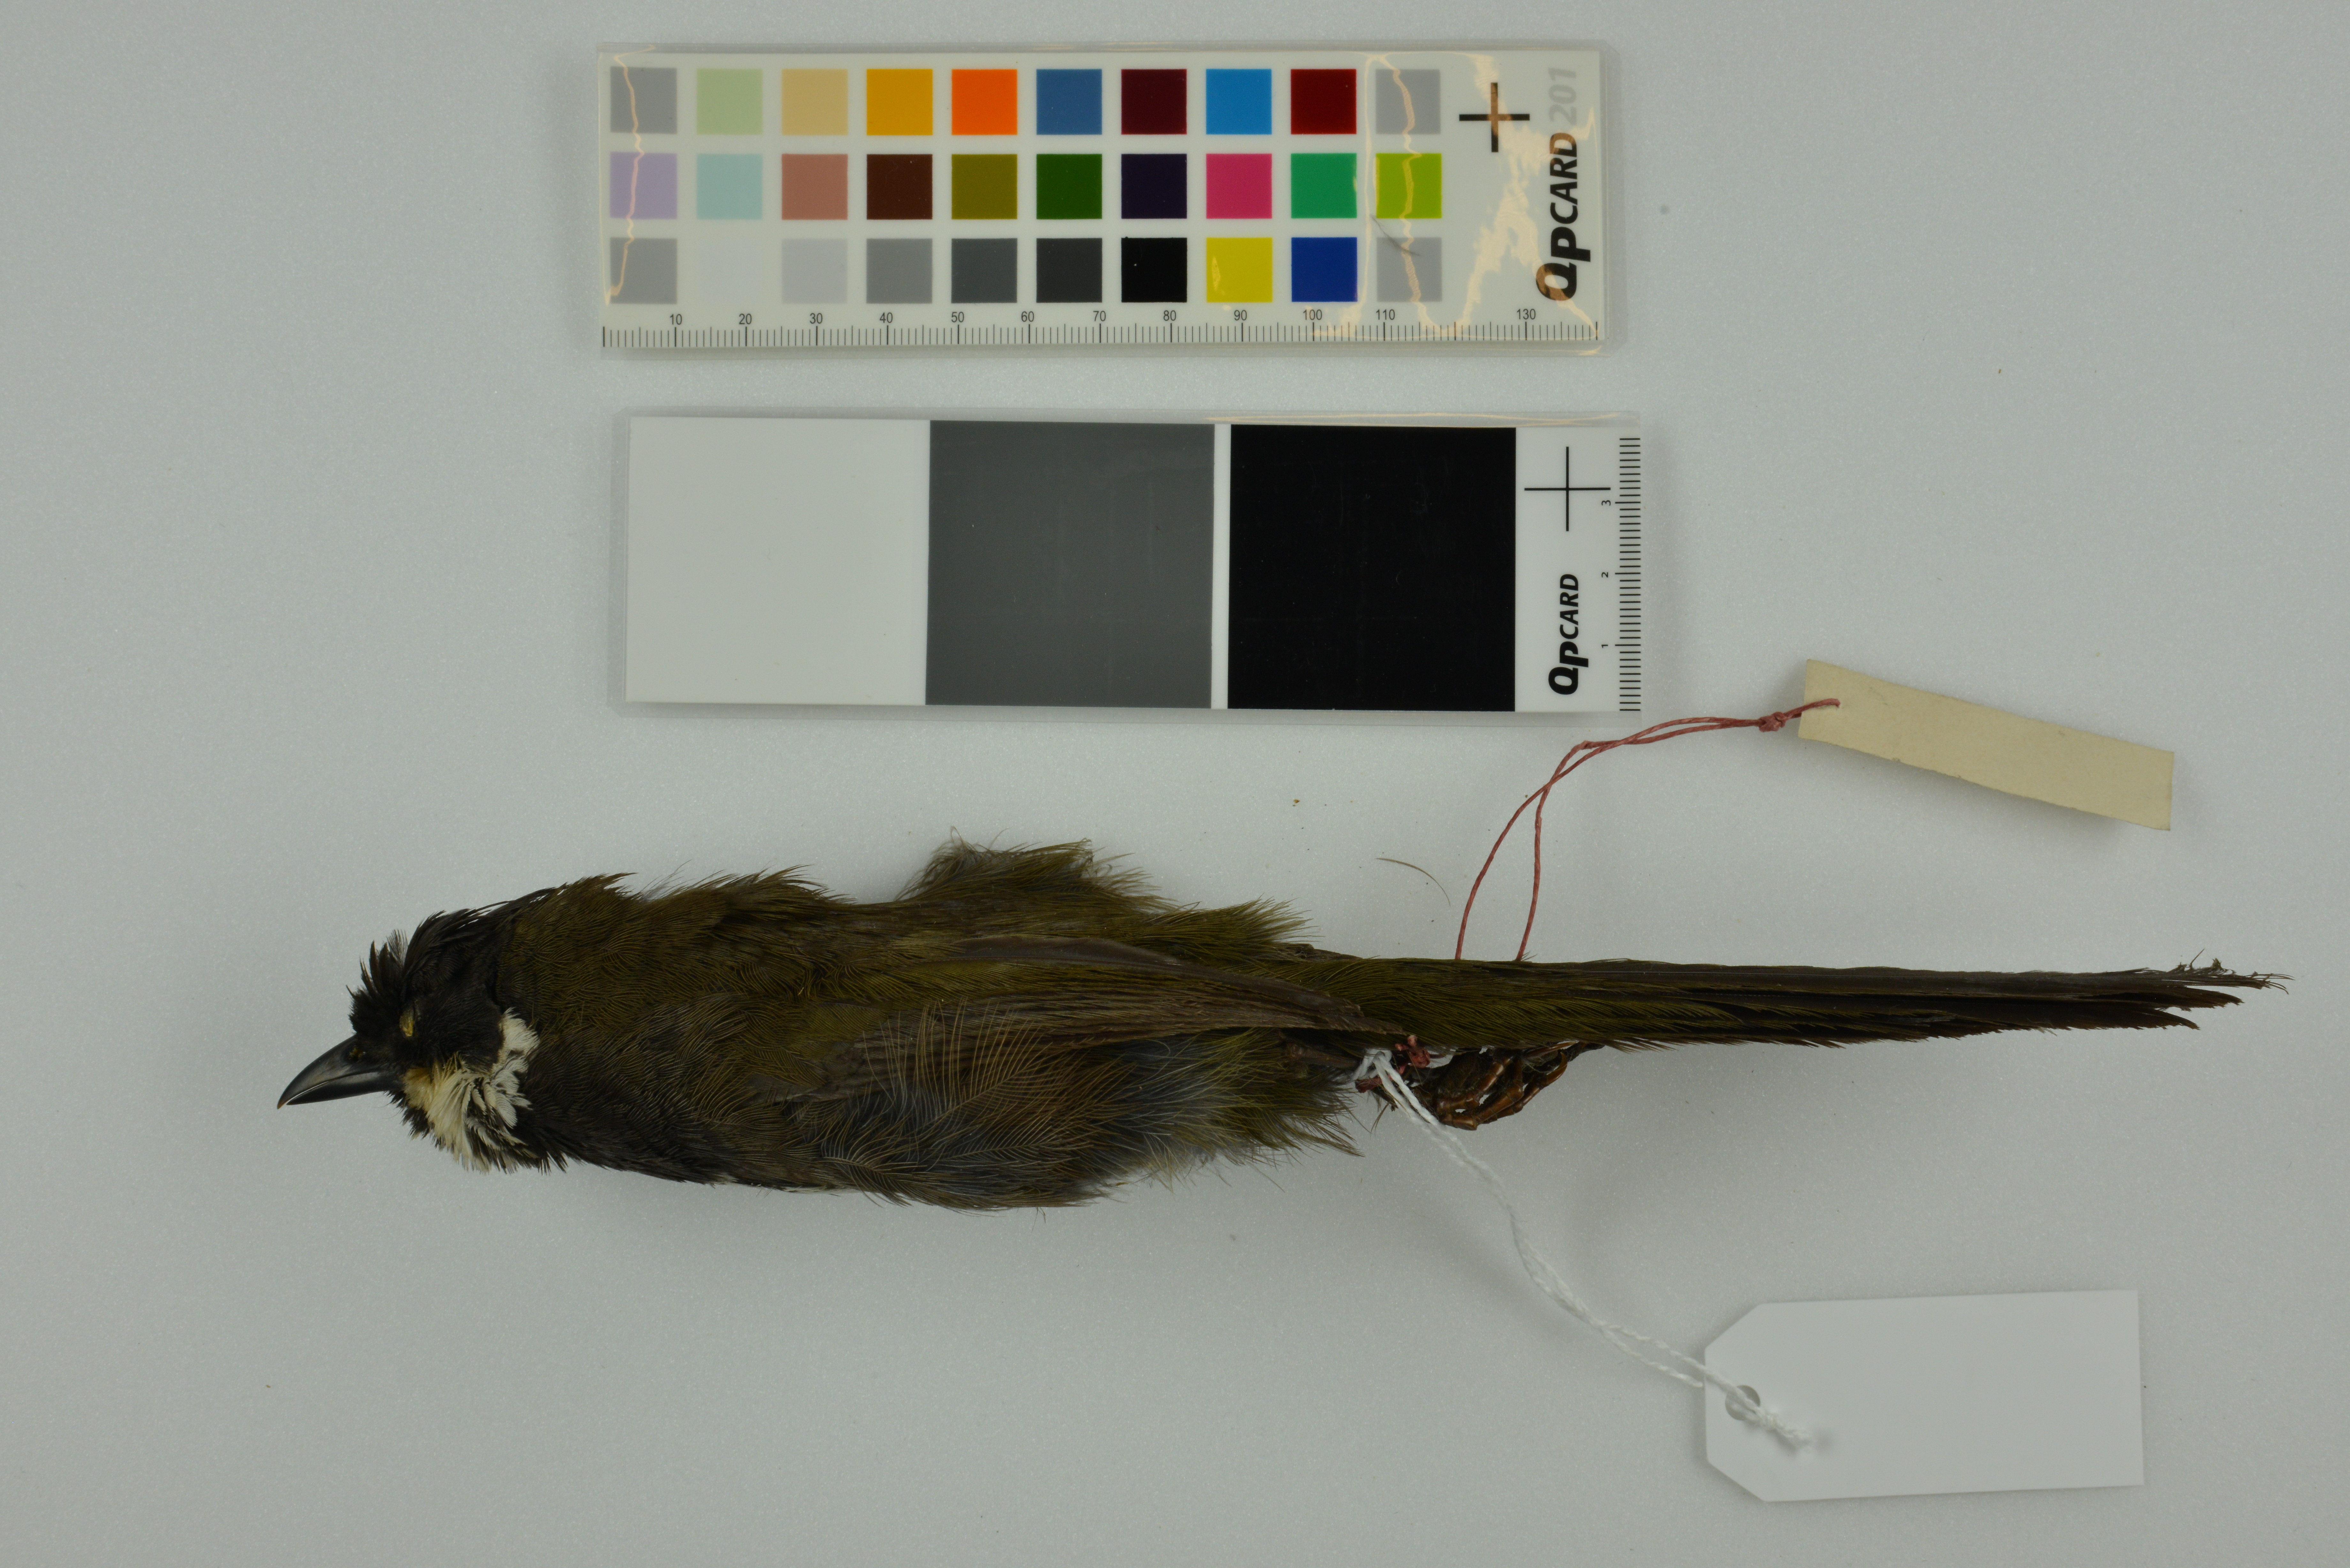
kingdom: Animalia
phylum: Chordata
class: Aves
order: Passeriformes
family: Psophodidae
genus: Psophodes
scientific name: Psophodes olivaceus
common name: Eastern whipbird
